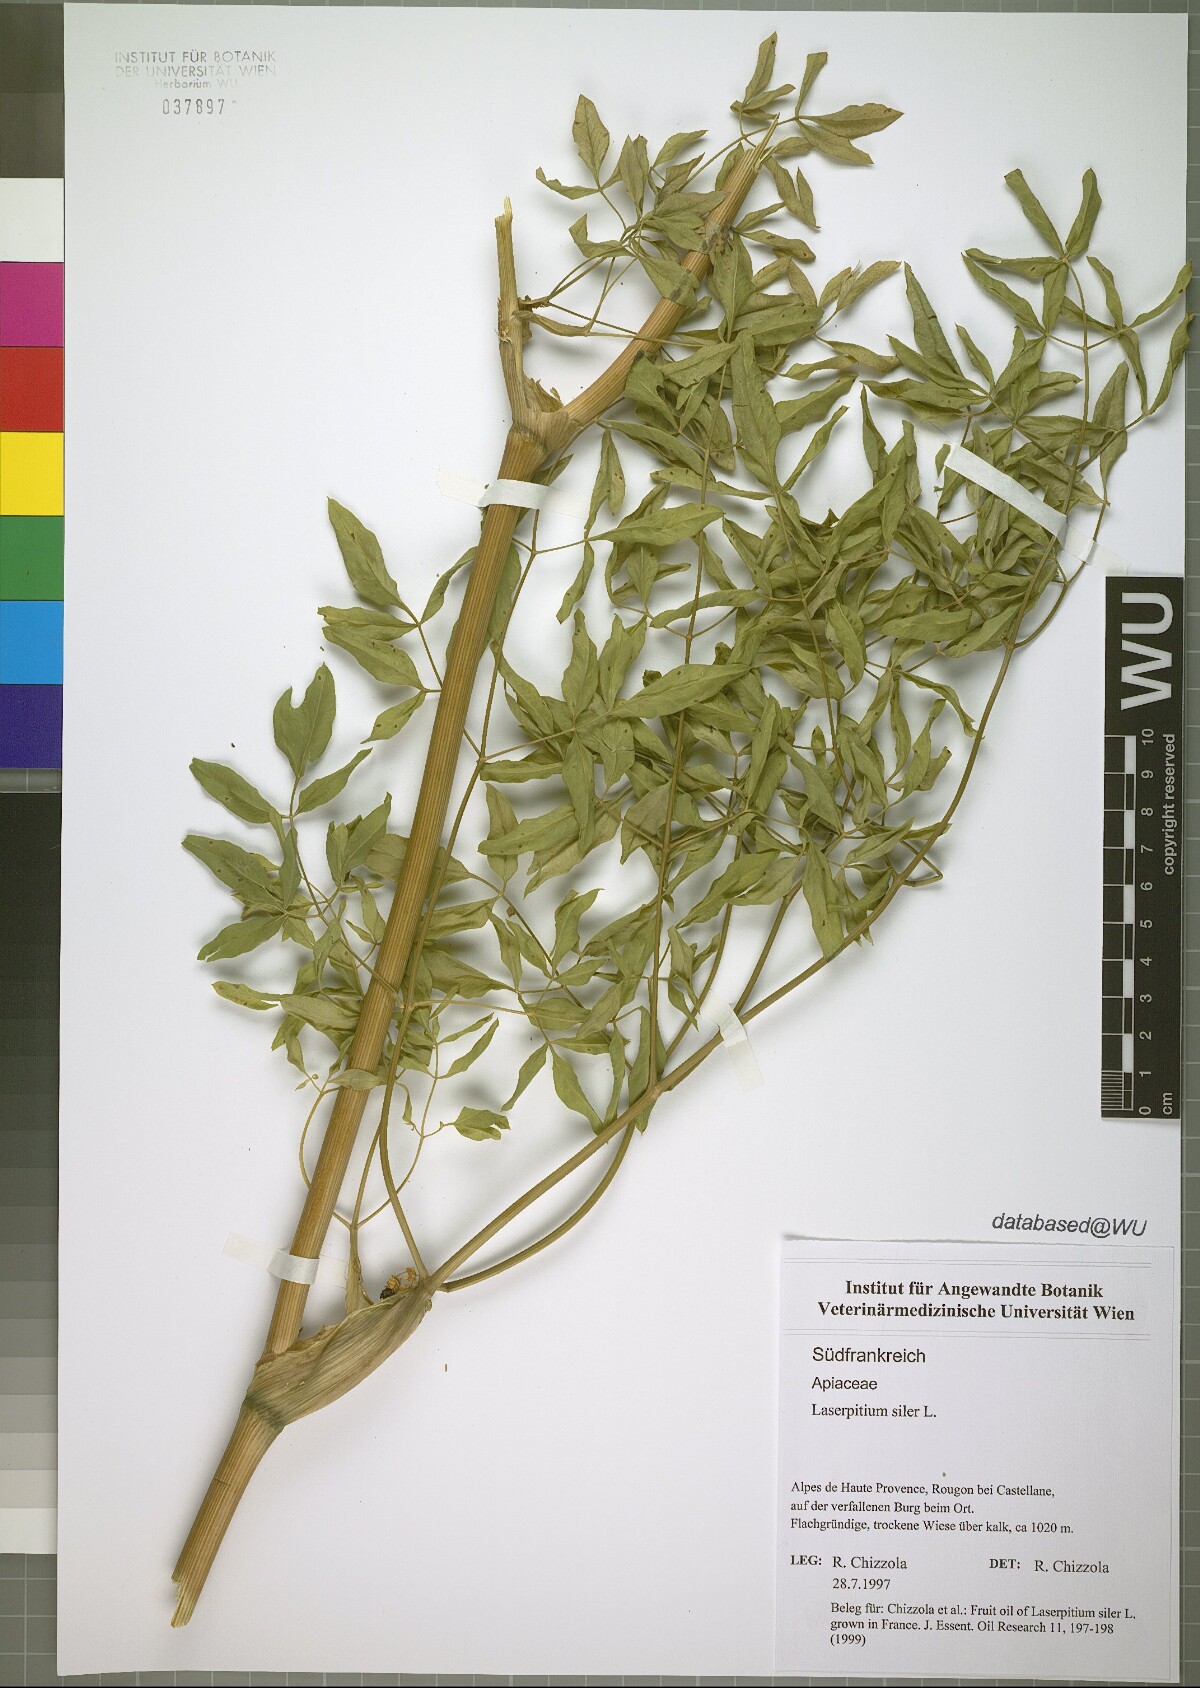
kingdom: Plantae
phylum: Tracheophyta
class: Magnoliopsida
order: Apiales
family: Apiaceae
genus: Siler
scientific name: Siler montanum
